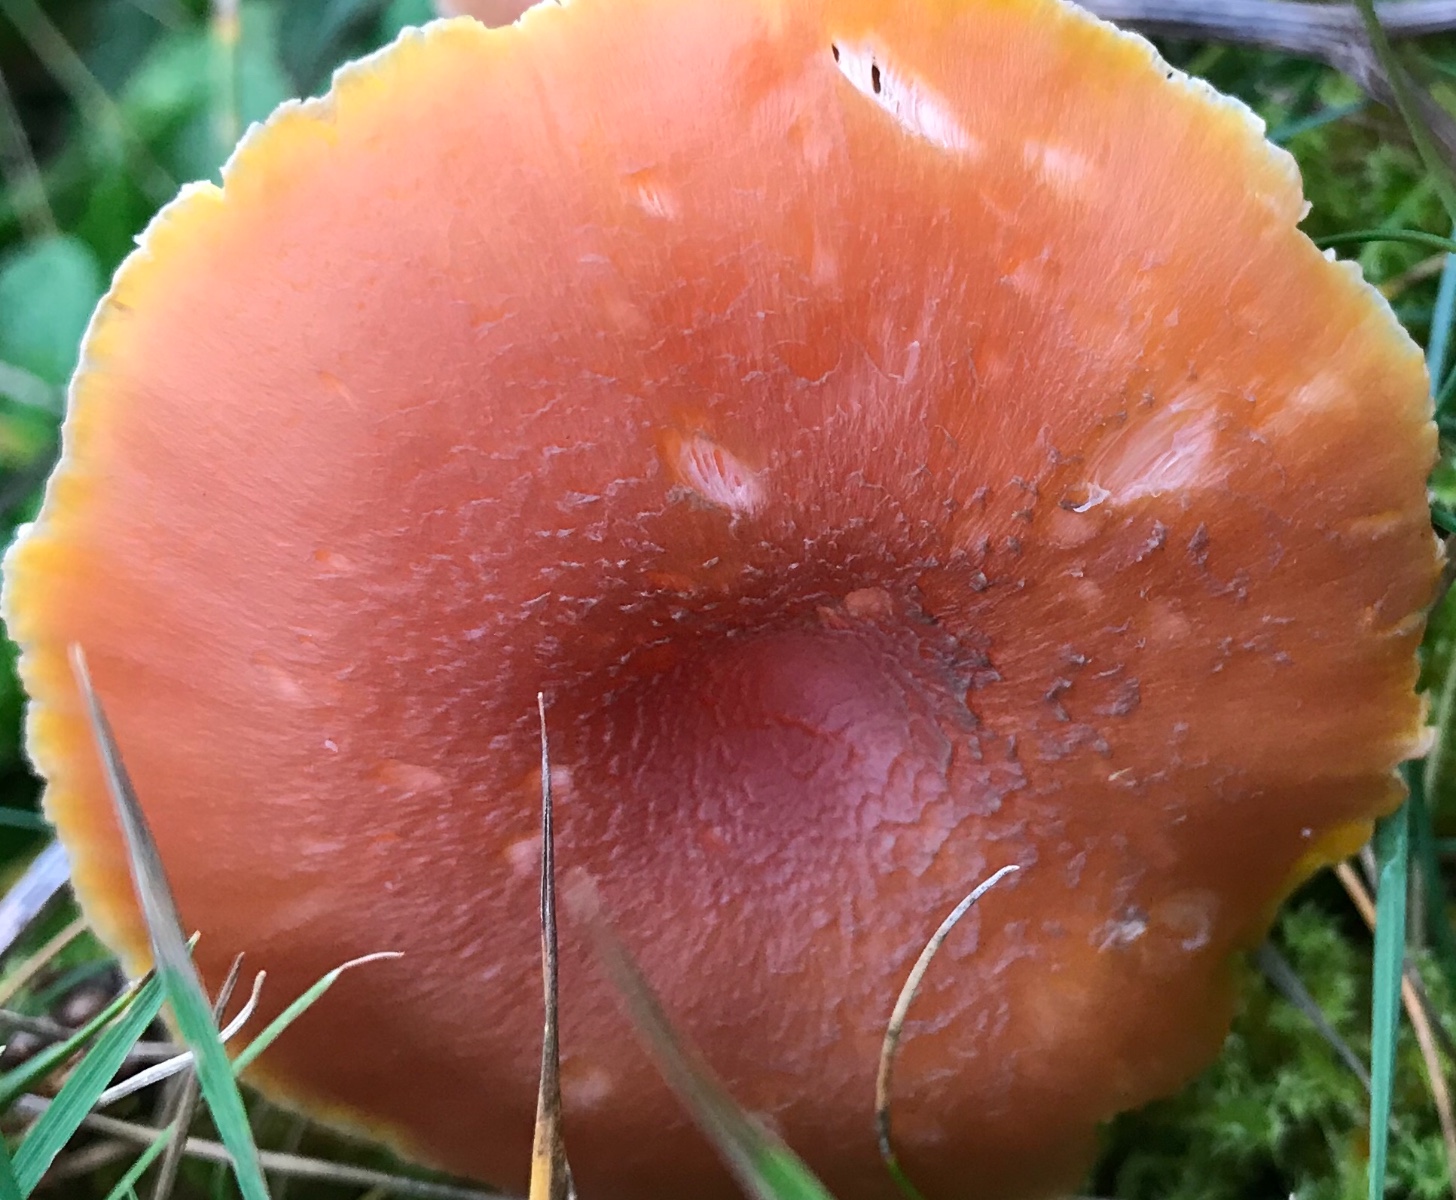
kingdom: Fungi
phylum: Basidiomycota
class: Agaricomycetes
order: Agaricales
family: Hygrophoraceae
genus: Hygrocybe
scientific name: Hygrocybe miniata
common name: mønje-vokshat
